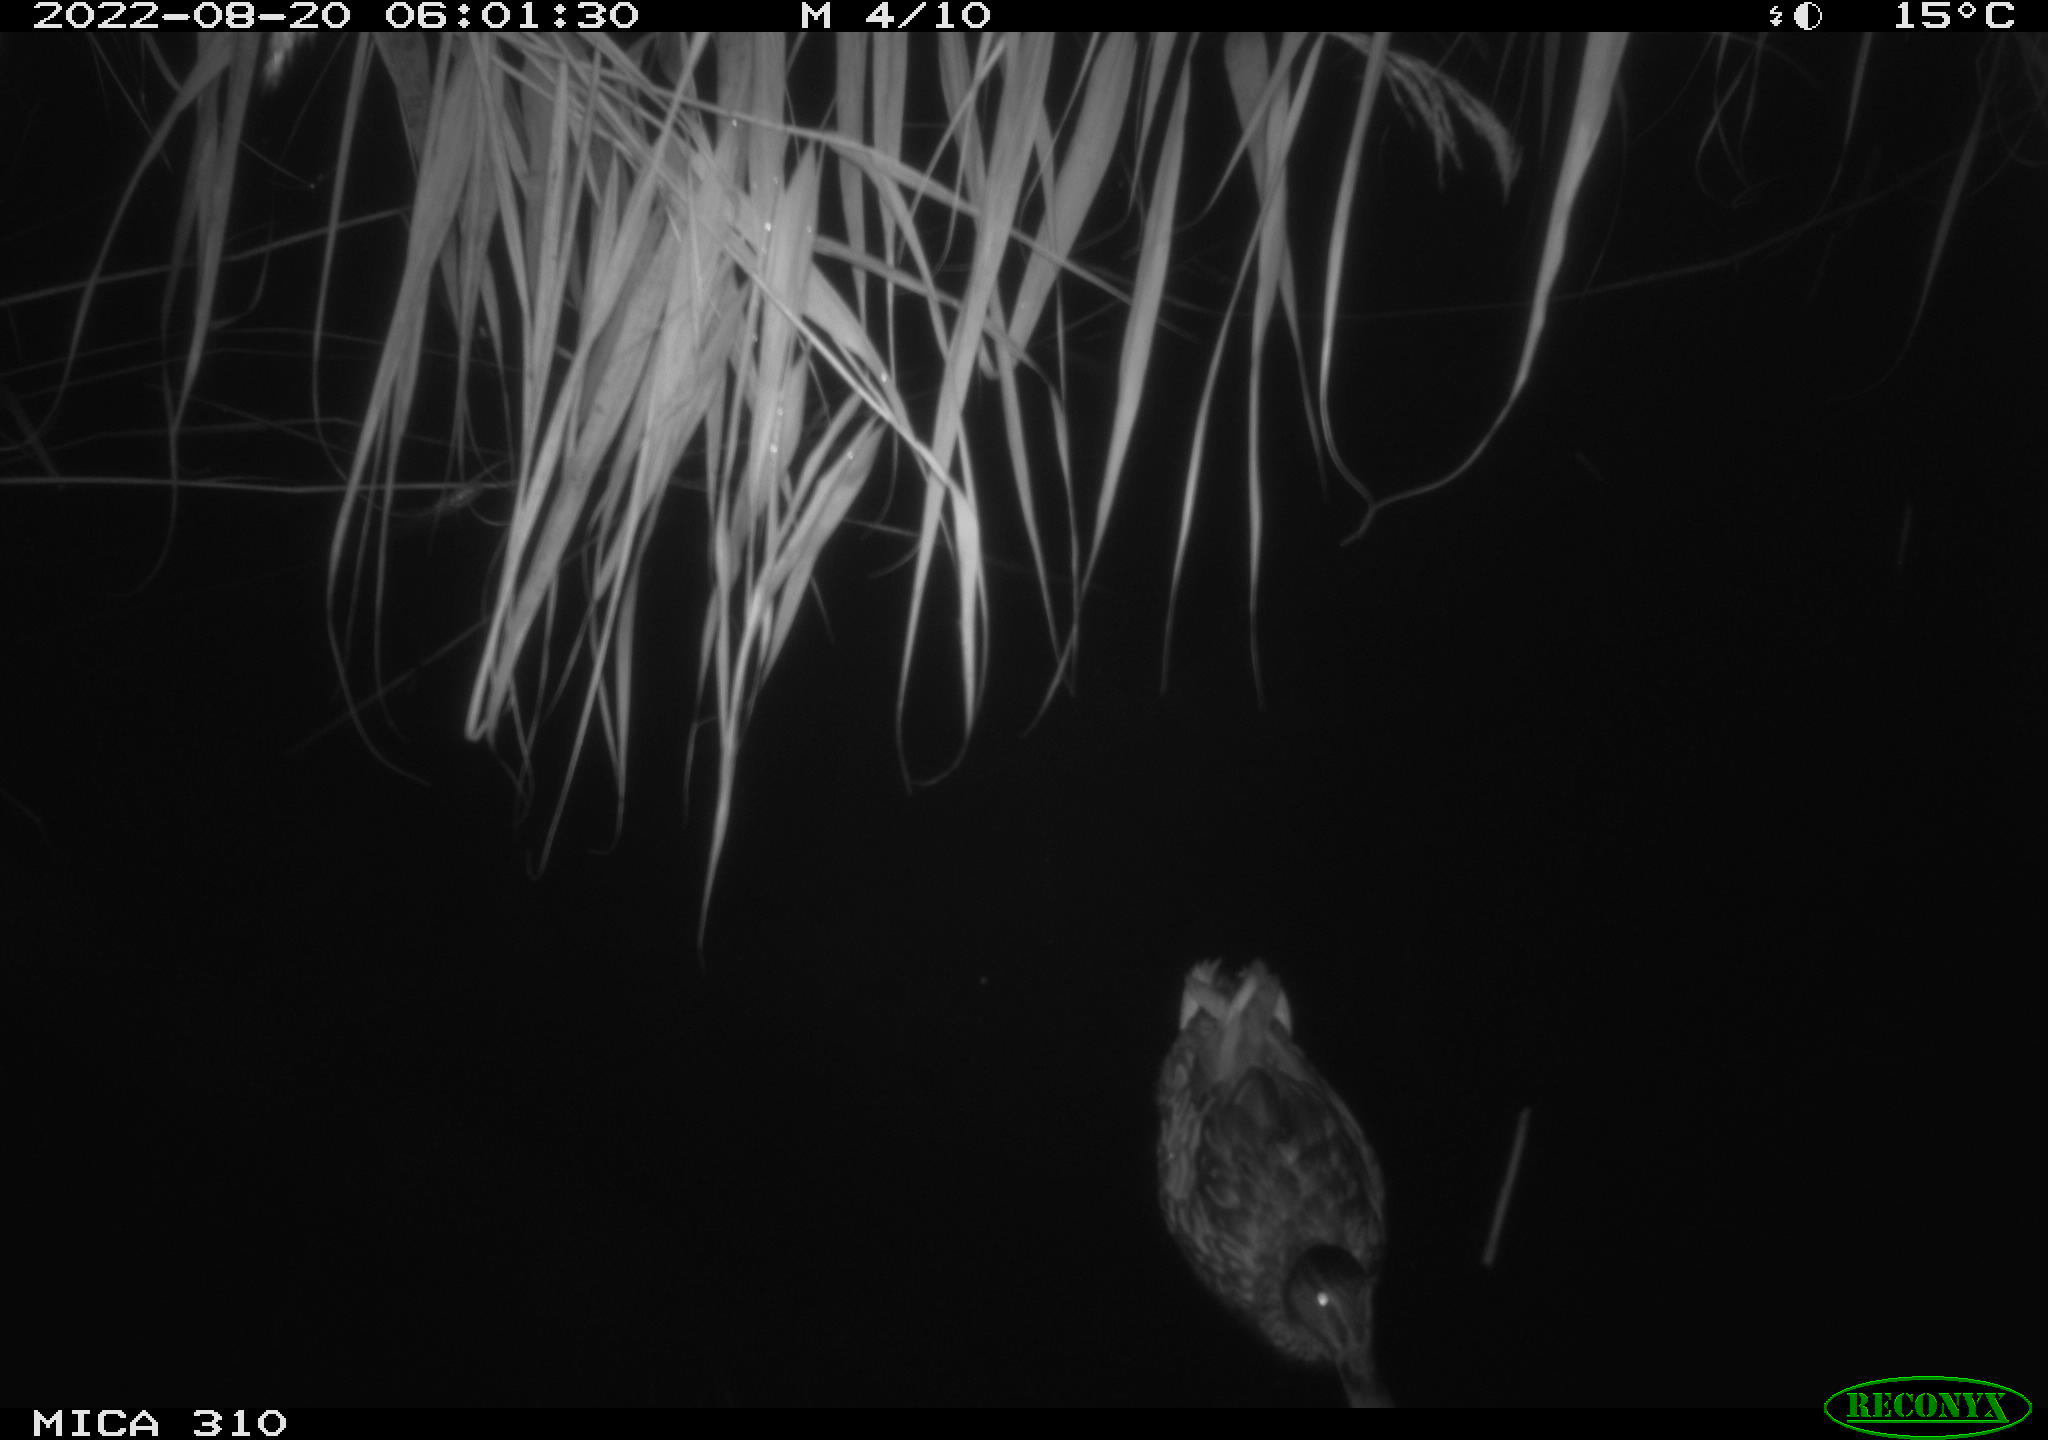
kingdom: Animalia
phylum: Chordata
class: Aves
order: Anseriformes
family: Anatidae
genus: Anas
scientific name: Anas platyrhynchos
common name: Mallard
